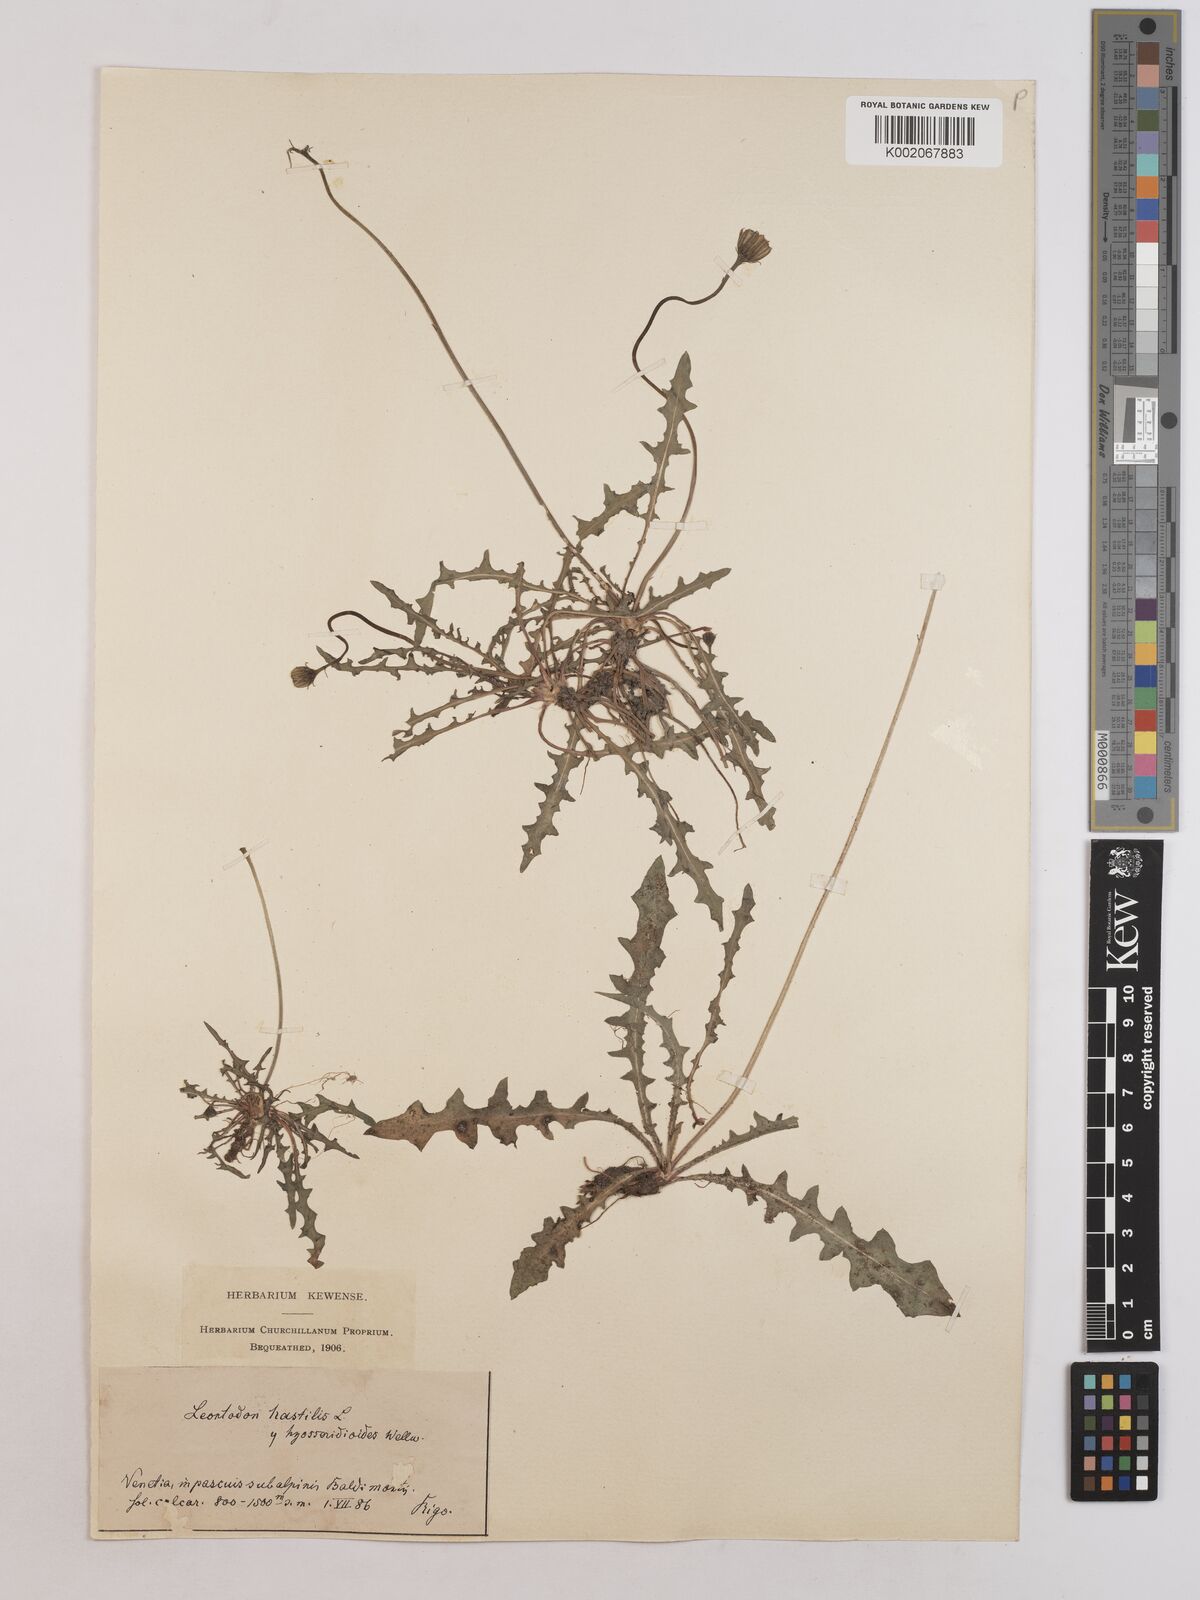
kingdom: Plantae
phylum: Tracheophyta
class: Magnoliopsida
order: Asterales
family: Asteraceae
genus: Leontodon
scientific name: Leontodon hispidus
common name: Rough hawkbit
